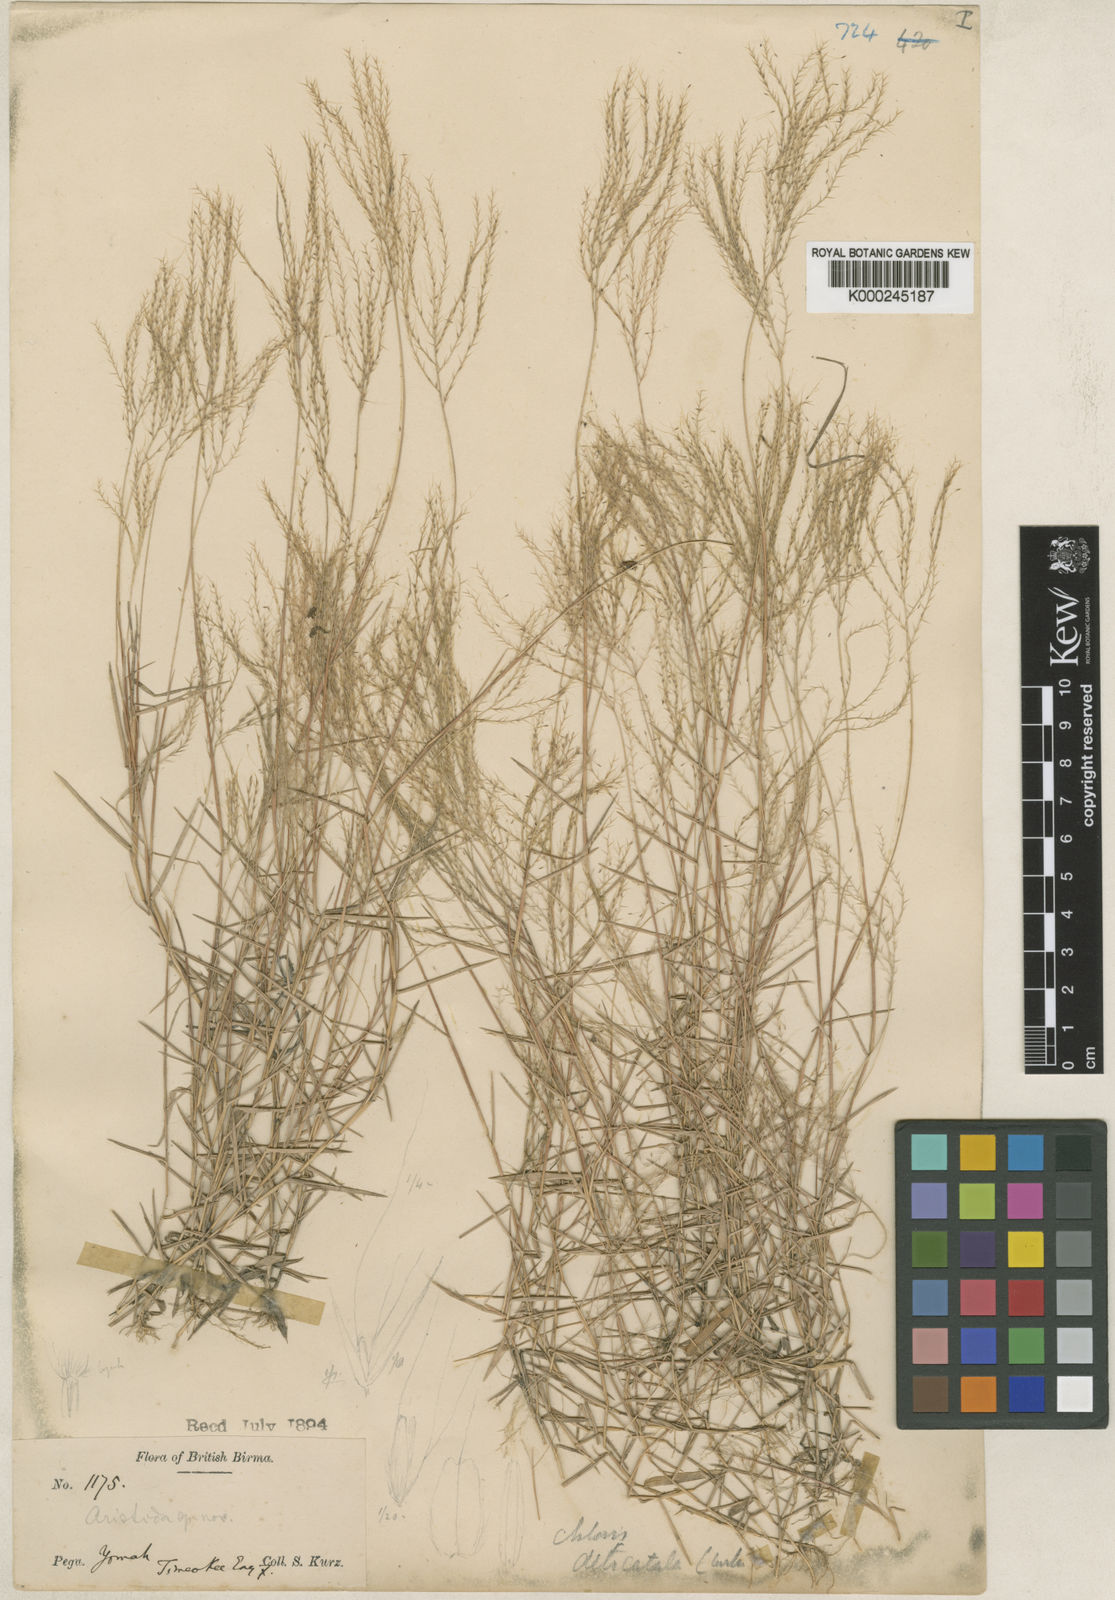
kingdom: Plantae
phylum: Tracheophyta
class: Liliopsida
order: Poales
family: Poaceae
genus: Gymnopogon
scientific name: Gymnopogon delicatulus
